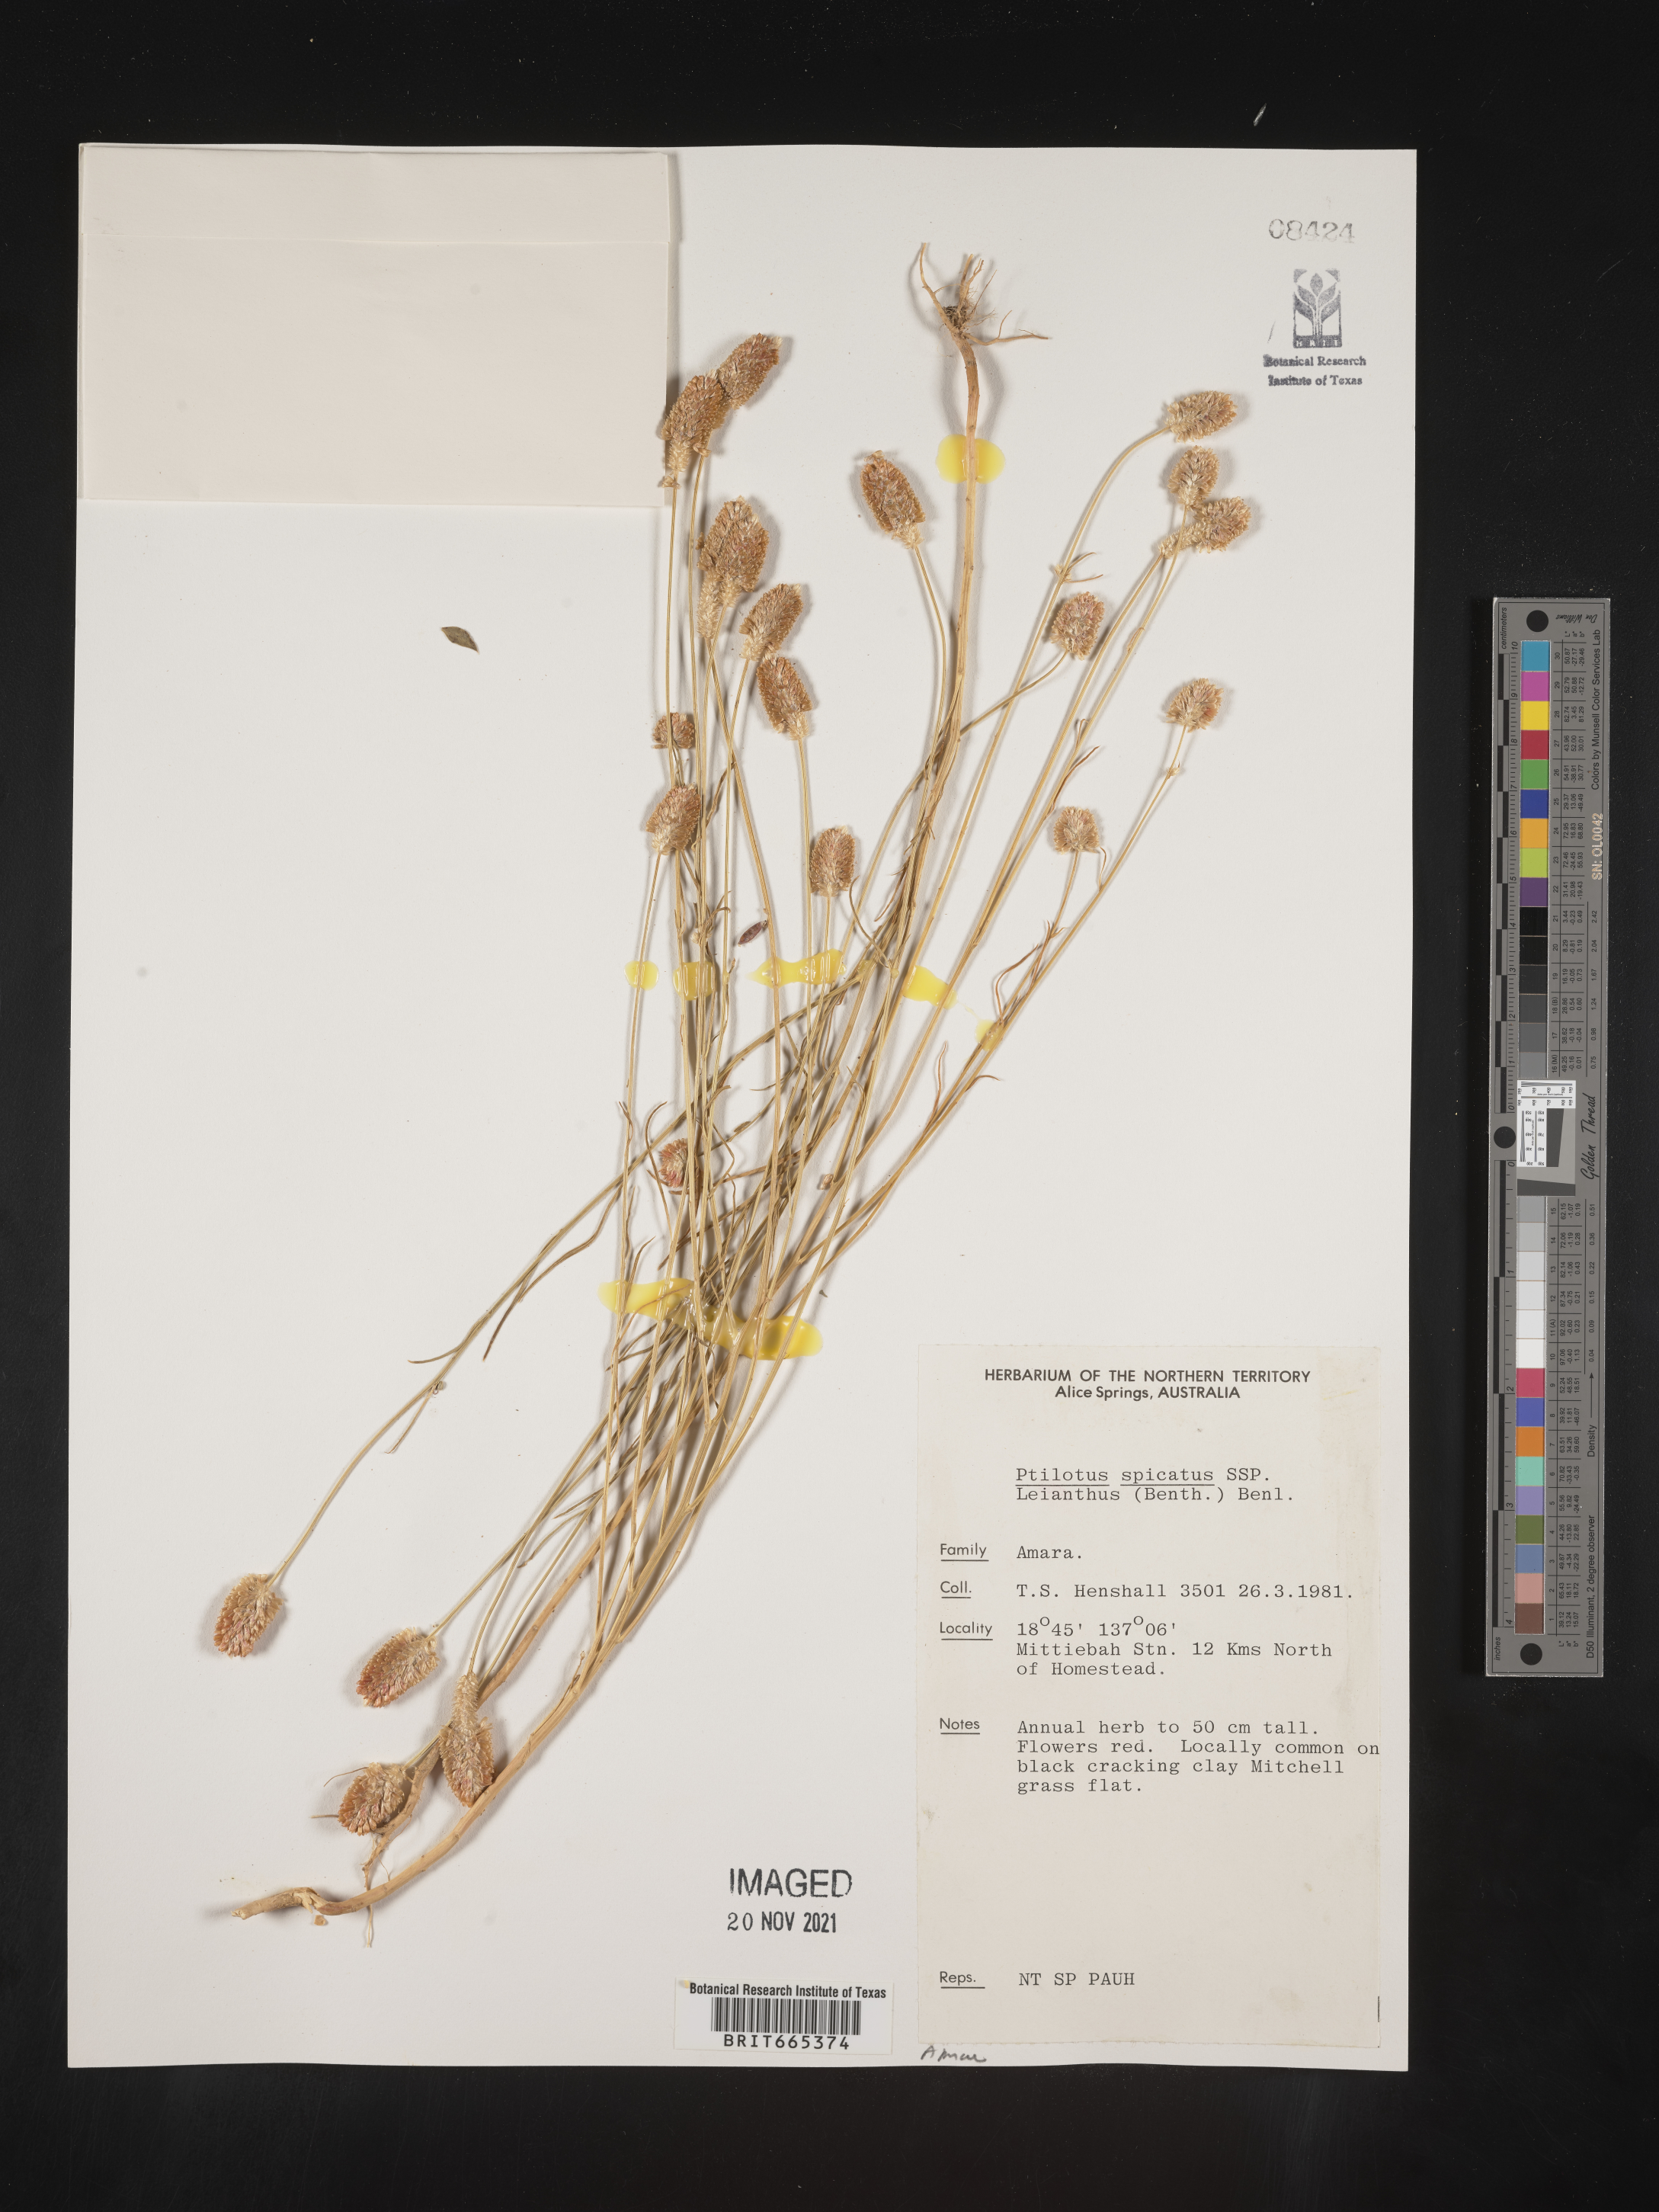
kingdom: Plantae
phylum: Tracheophyta
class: Magnoliopsida
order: Caryophyllales
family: Amaranthaceae
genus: Ptilotus
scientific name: Ptilotus
